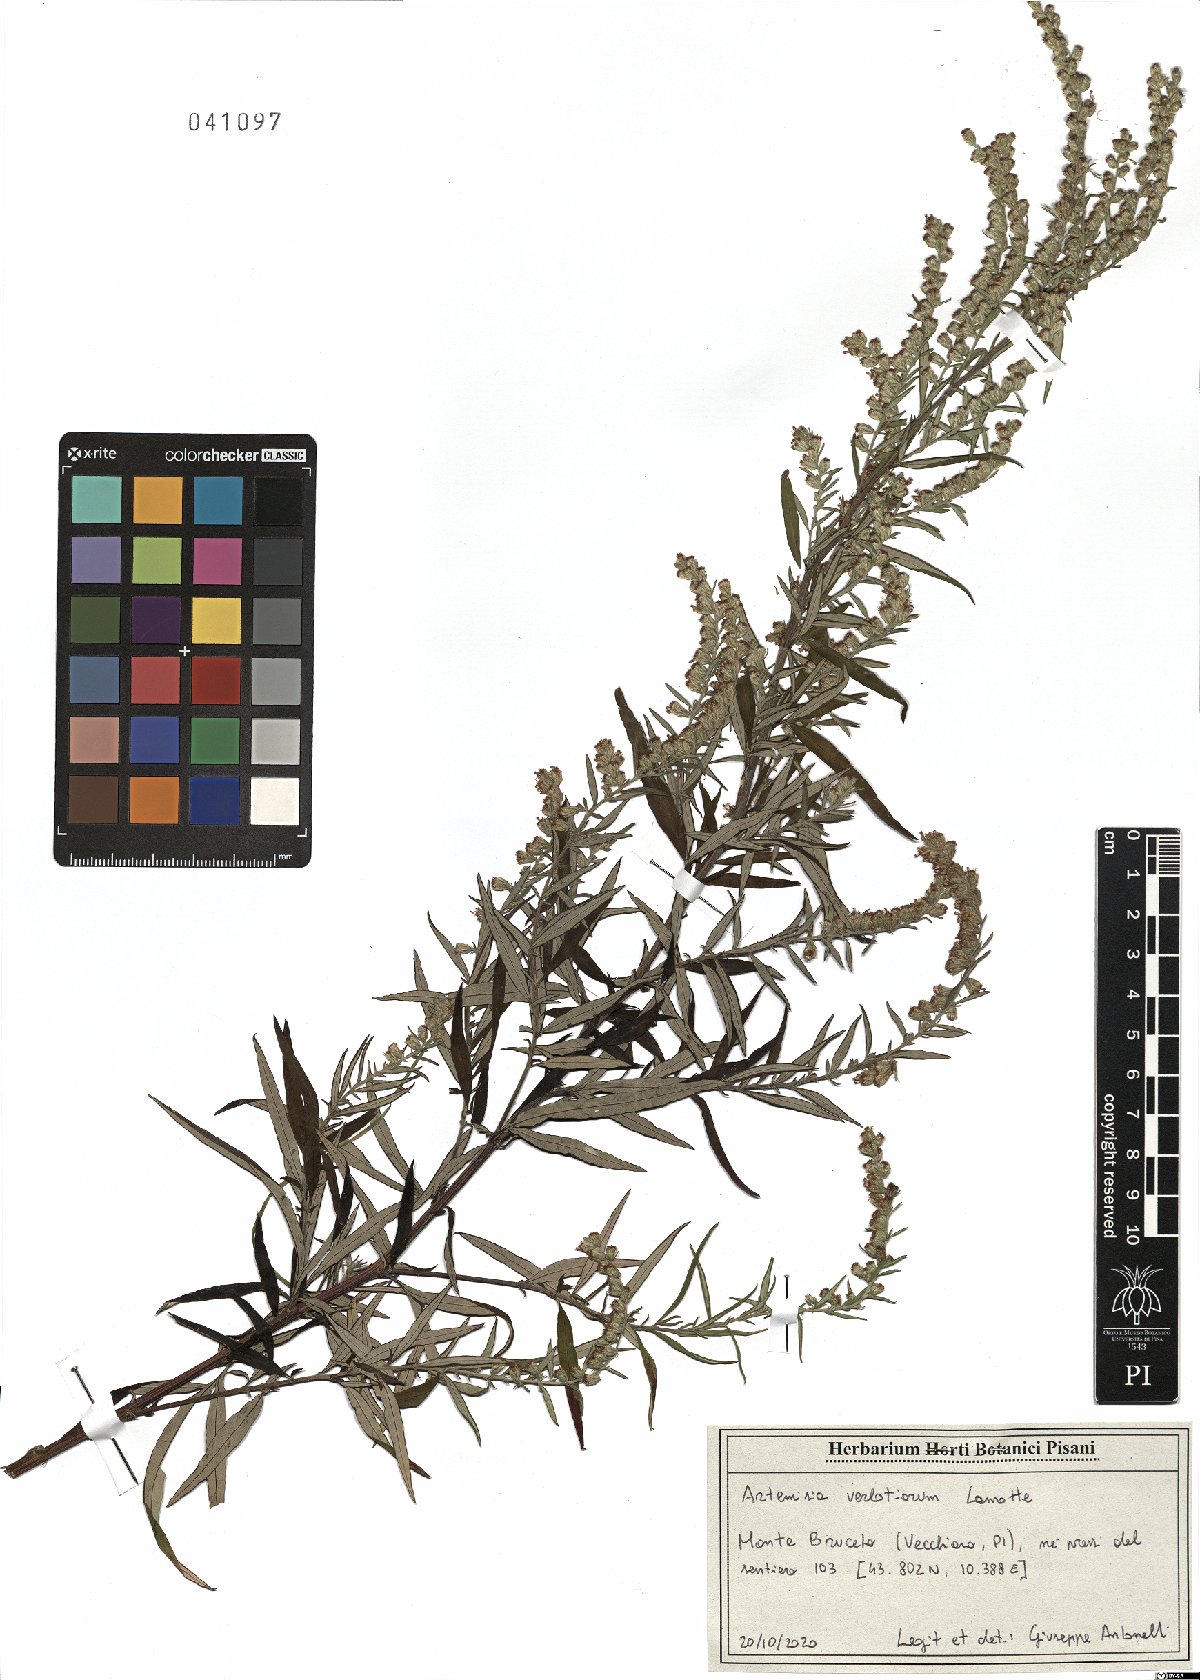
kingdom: Plantae
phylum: Tracheophyta
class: Magnoliopsida
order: Asterales
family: Asteraceae
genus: Artemisia
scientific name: Artemisia verlotiorum
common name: Chinese mugwort
